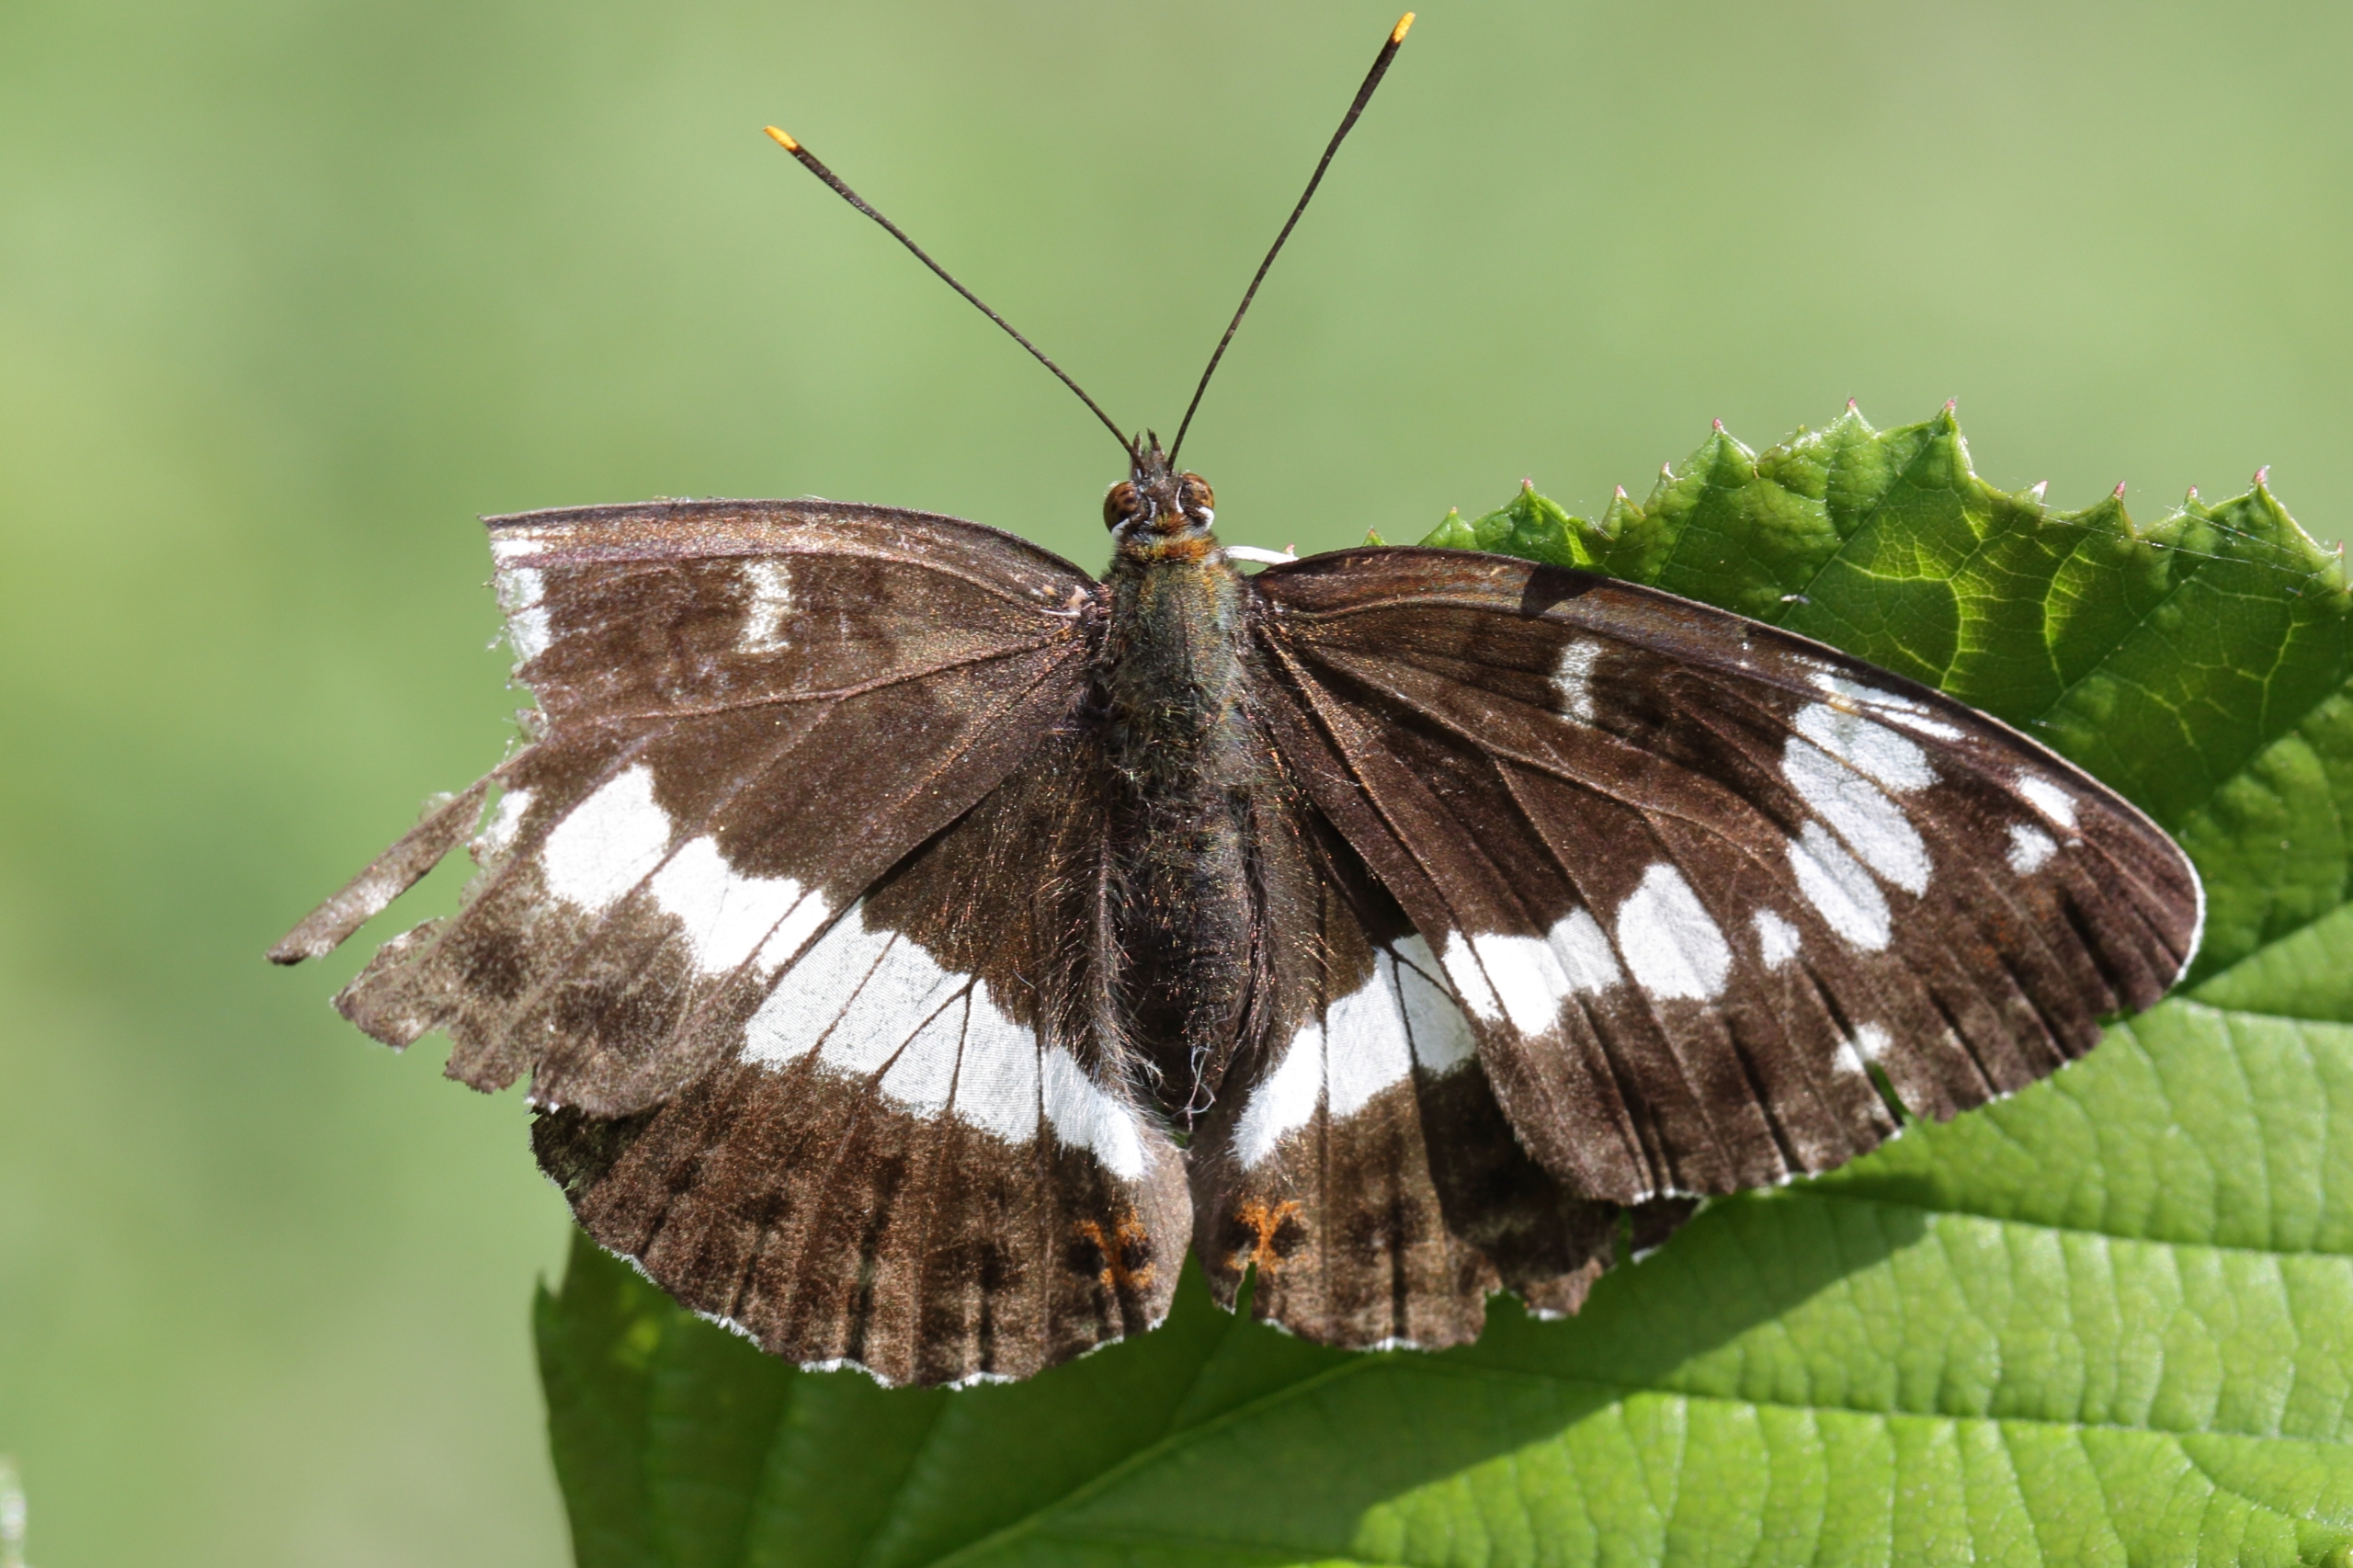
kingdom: Animalia
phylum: Arthropoda
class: Insecta
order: Lepidoptera
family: Nymphalidae
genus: Ladoga
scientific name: Ladoga camilla
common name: Hvid admiral
